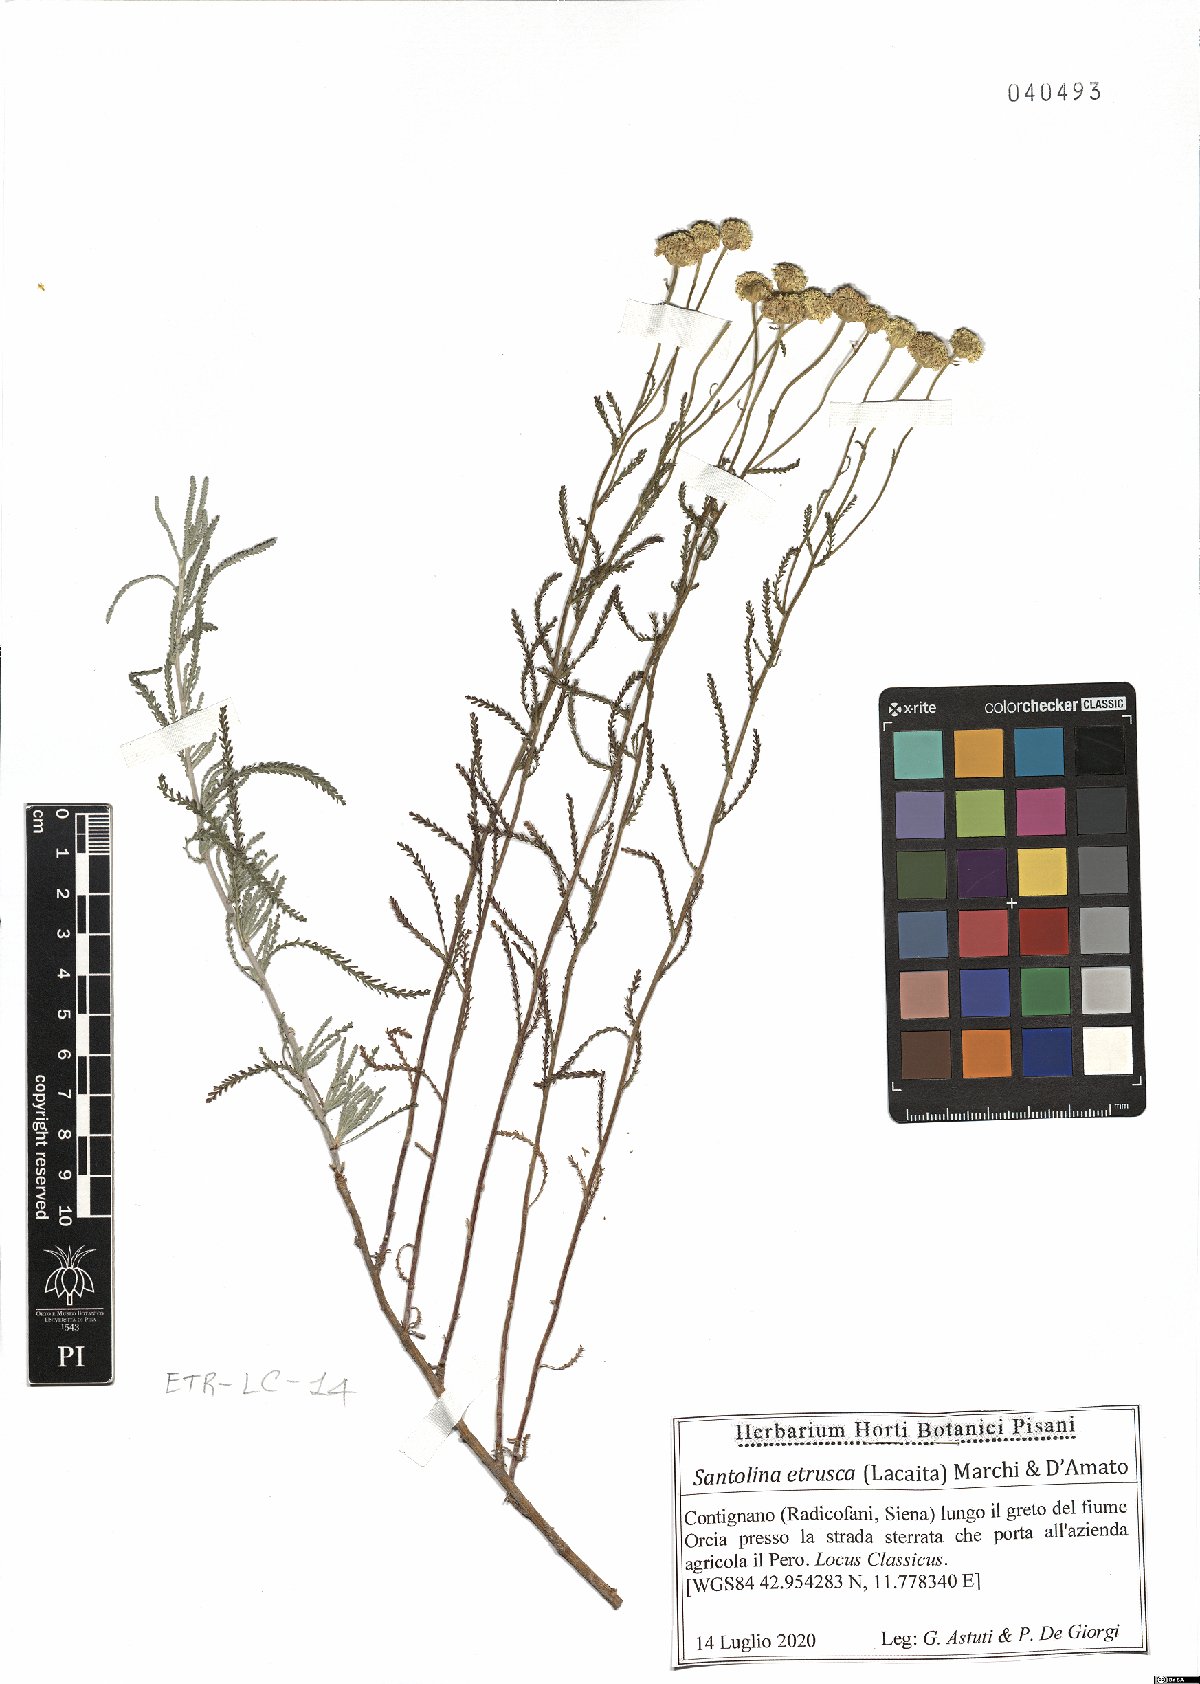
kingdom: Plantae
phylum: Tracheophyta
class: Magnoliopsida
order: Asterales
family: Asteraceae
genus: Santolina
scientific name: Santolina etrusca
